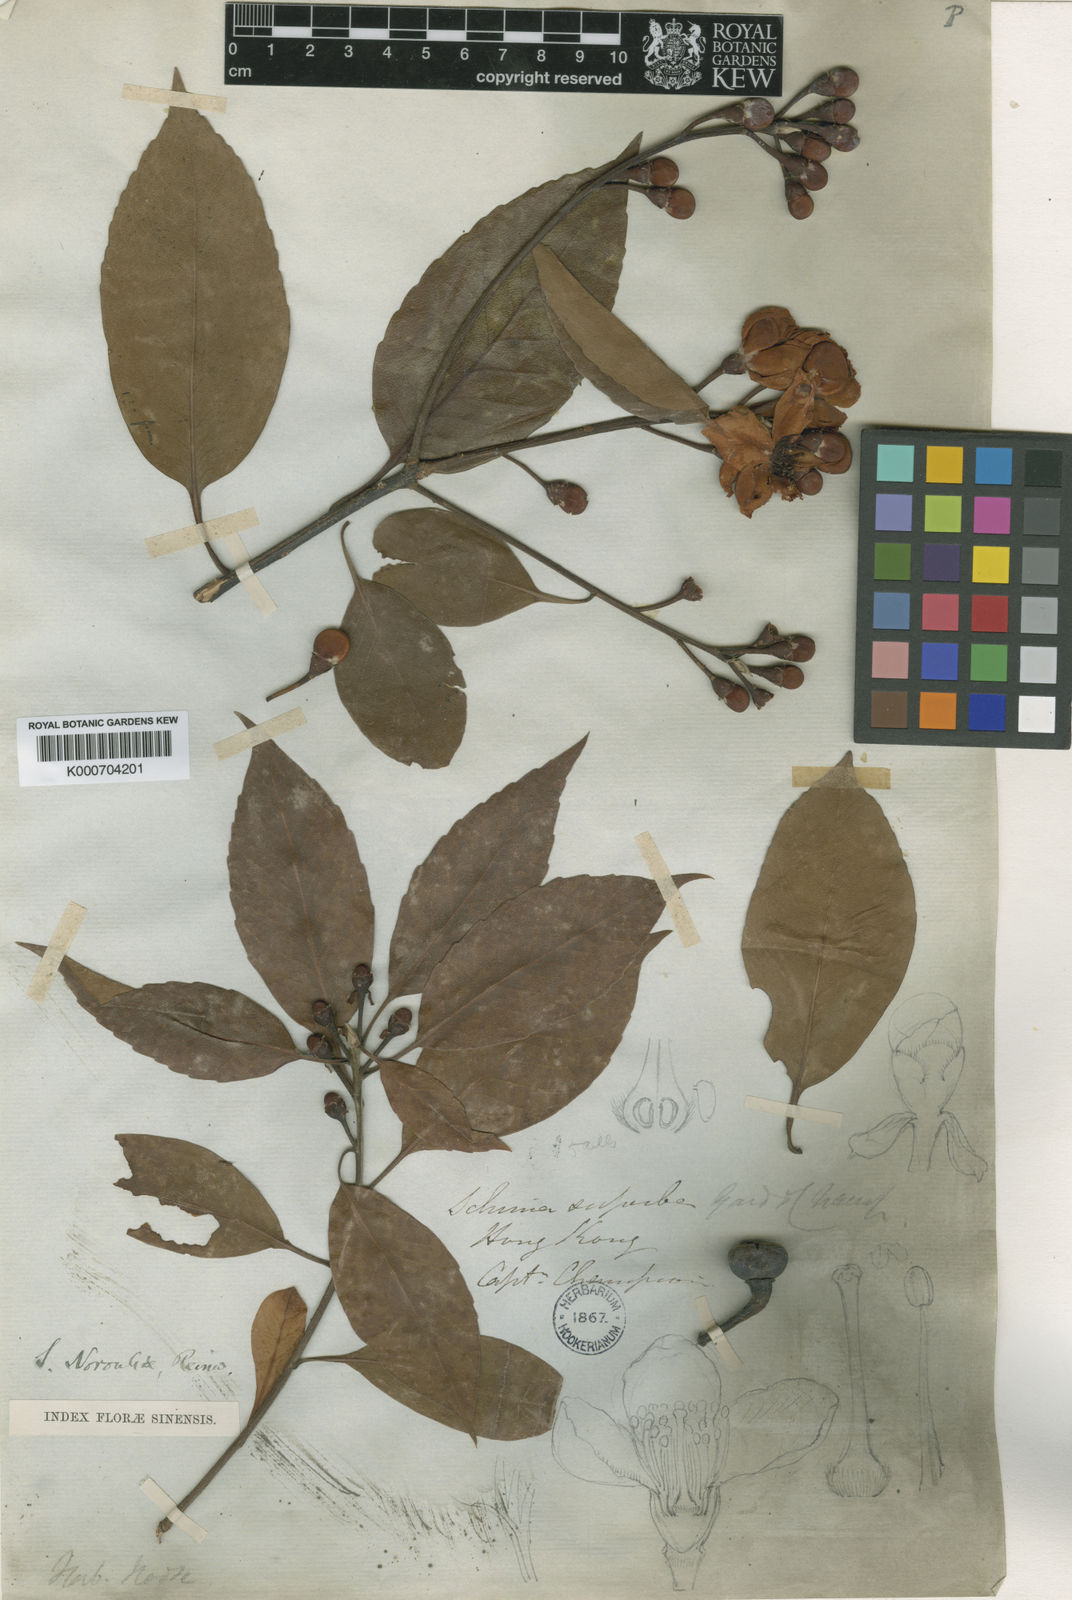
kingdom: Plantae
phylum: Tracheophyta
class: Magnoliopsida
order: Ericales
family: Theaceae
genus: Schima
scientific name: Schima superba
